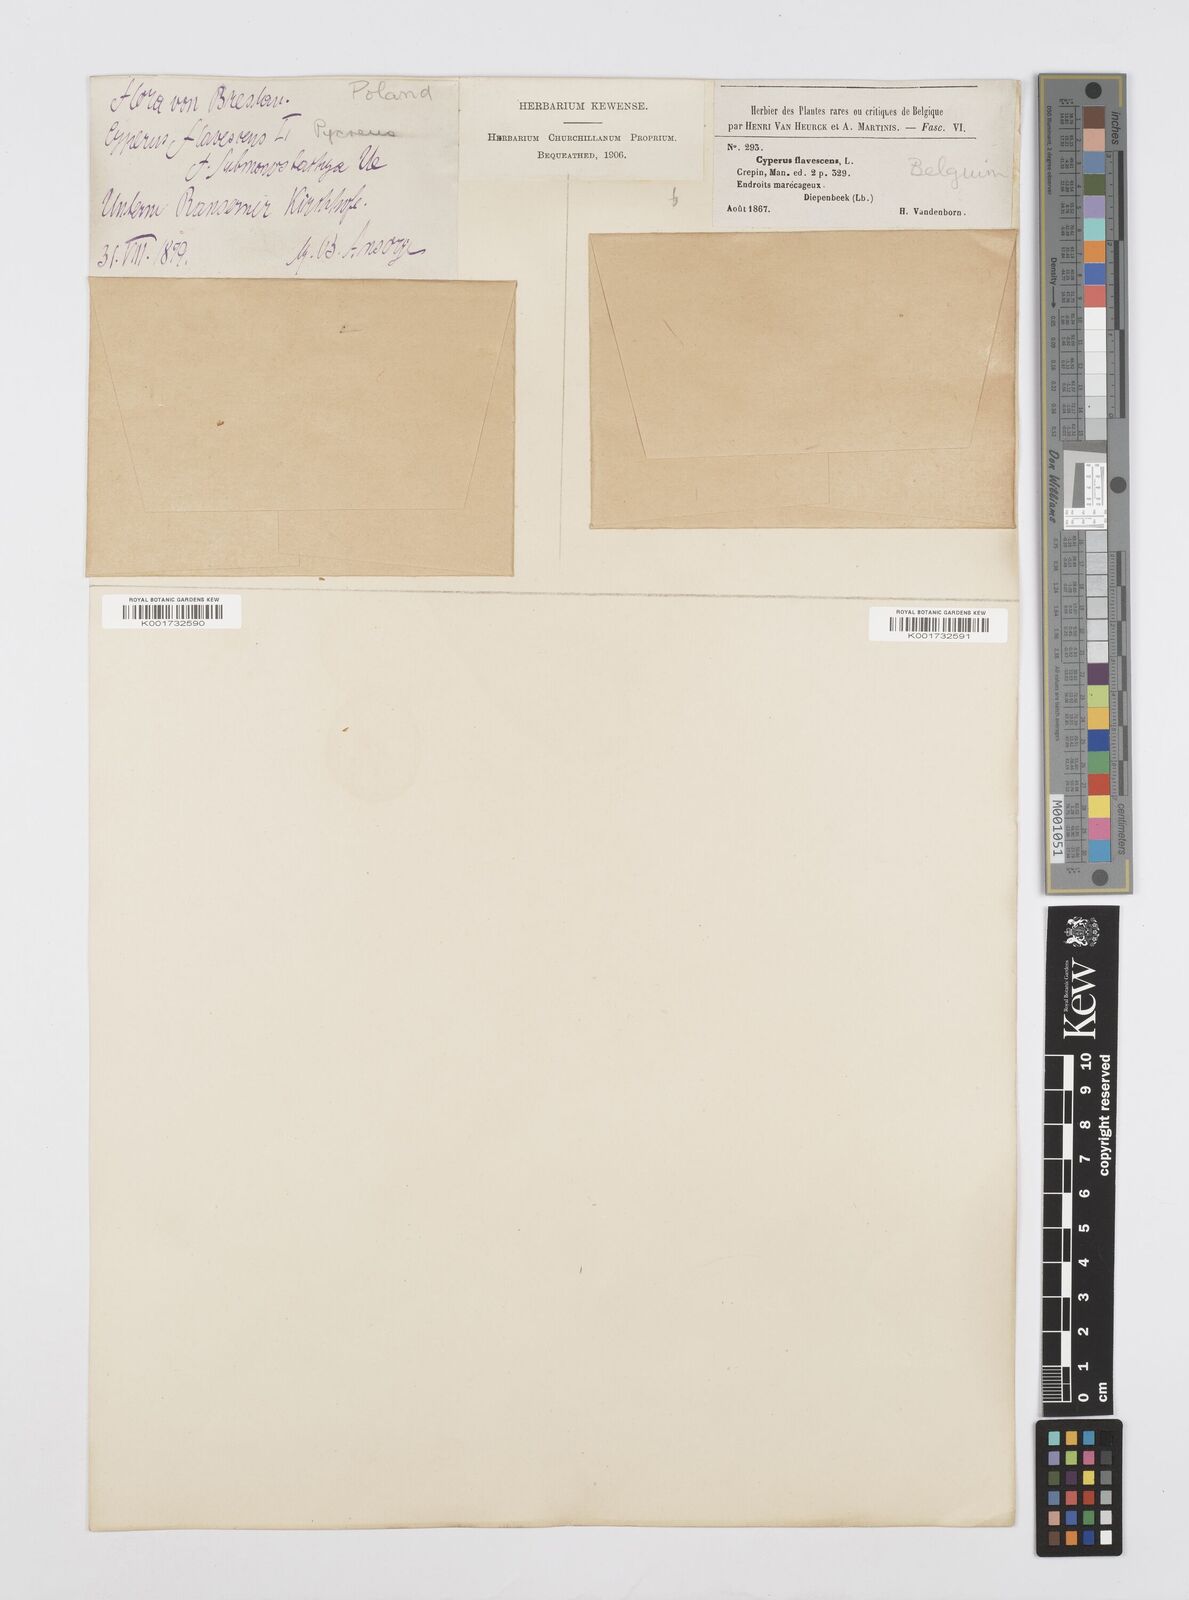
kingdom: Plantae
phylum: Tracheophyta
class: Liliopsida
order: Poales
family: Cyperaceae
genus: Cyperus
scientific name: Cyperus flavescens
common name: Yellow galingale
